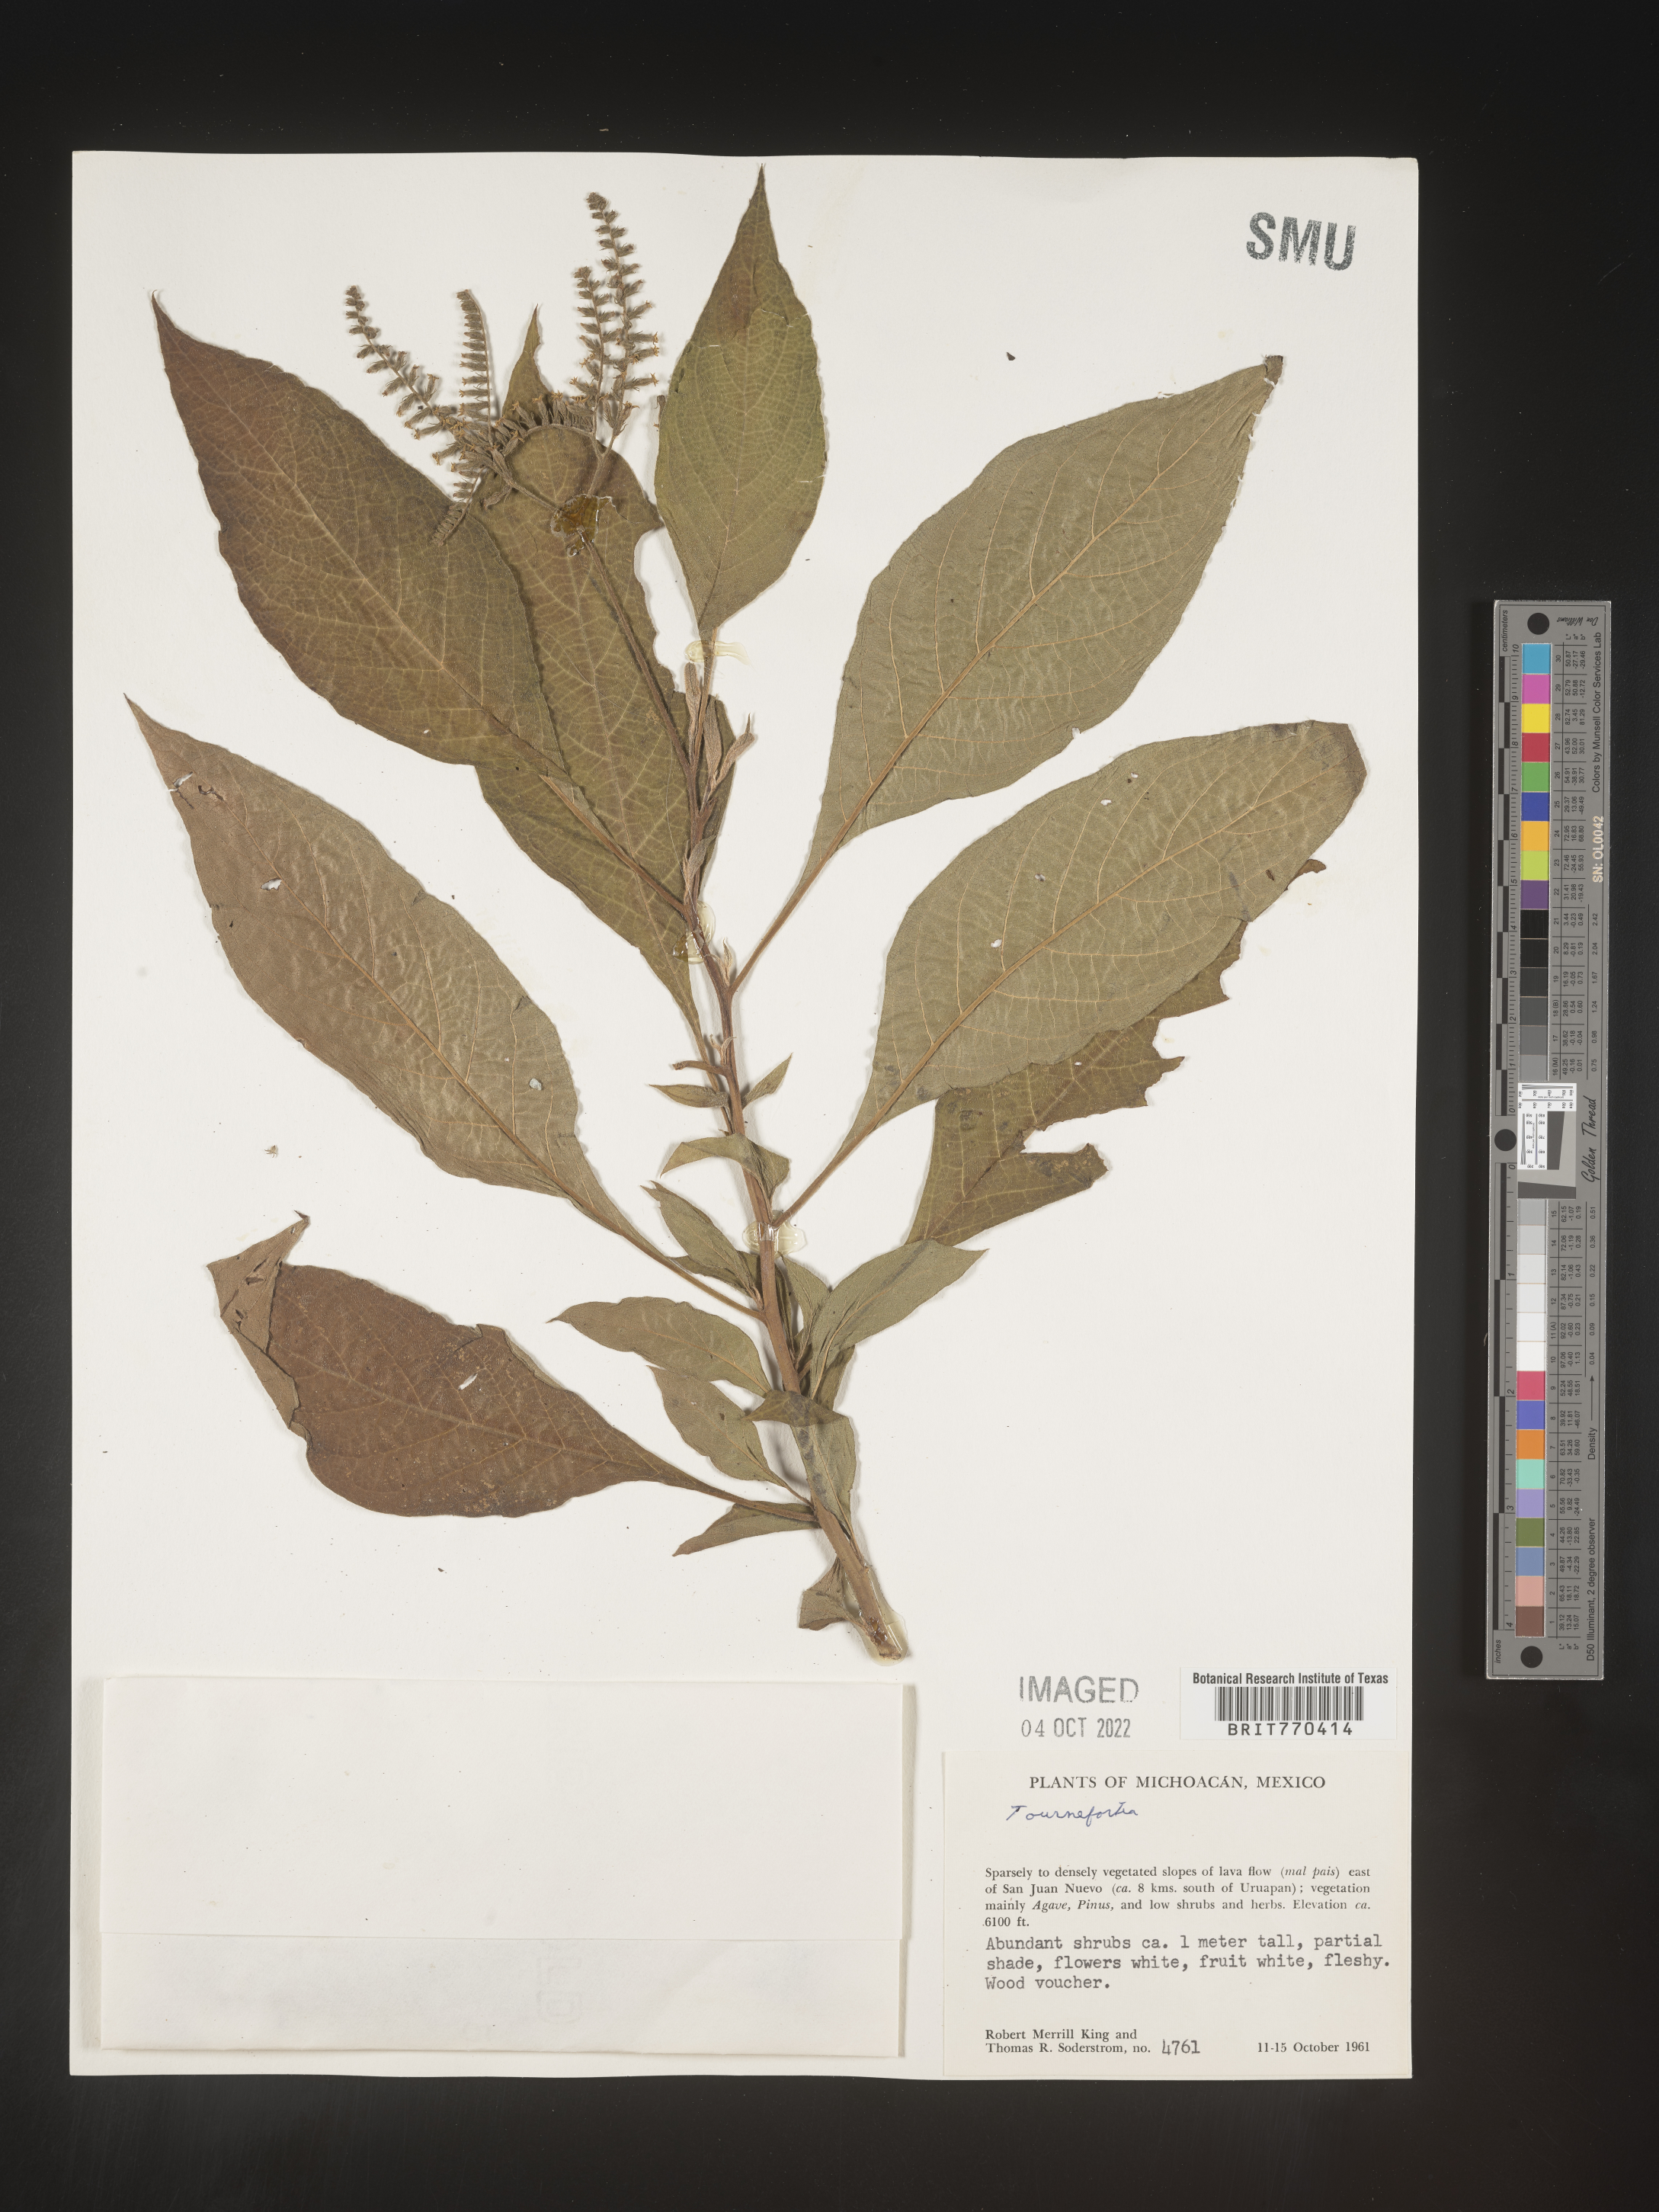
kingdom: Plantae
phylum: Tracheophyta
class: Magnoliopsida
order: Boraginales
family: Heliotropiaceae
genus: Tournefortia
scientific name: Tournefortia
